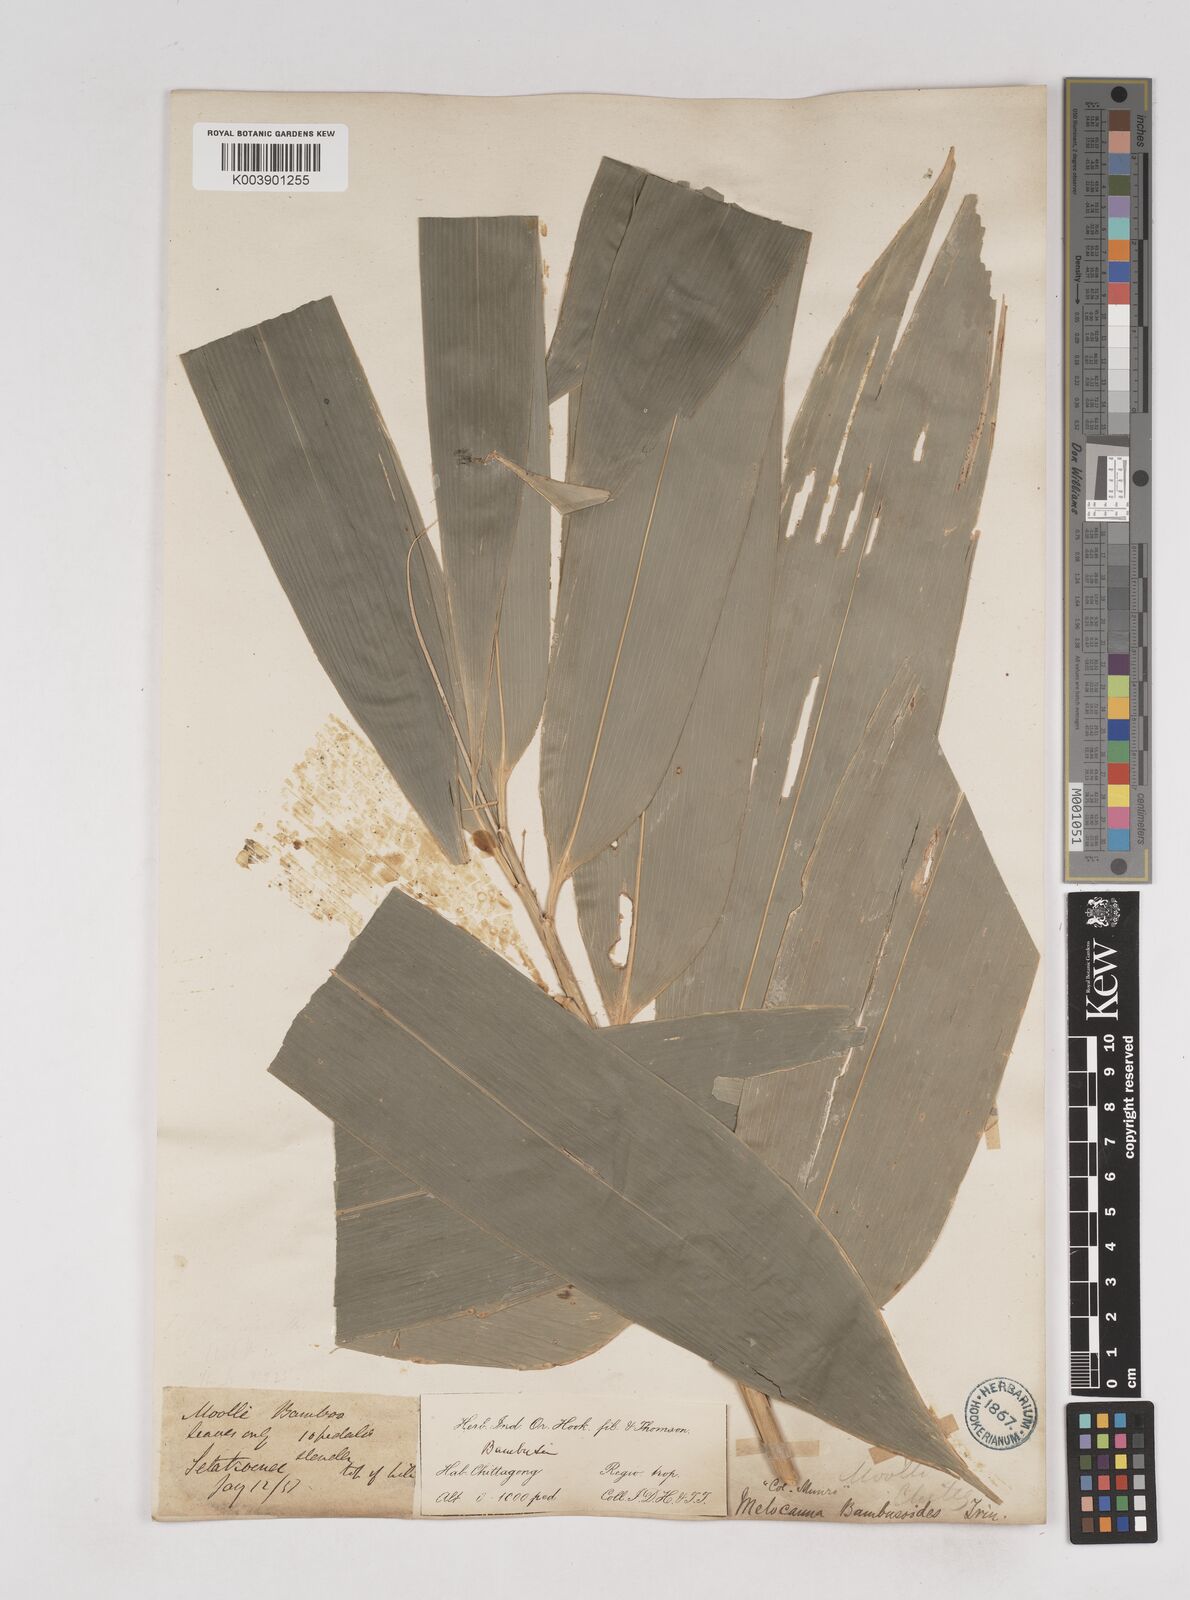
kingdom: Plantae
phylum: Tracheophyta
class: Liliopsida
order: Poales
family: Poaceae
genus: Melocanna
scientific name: Melocanna baccifera
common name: Berry bamboo
